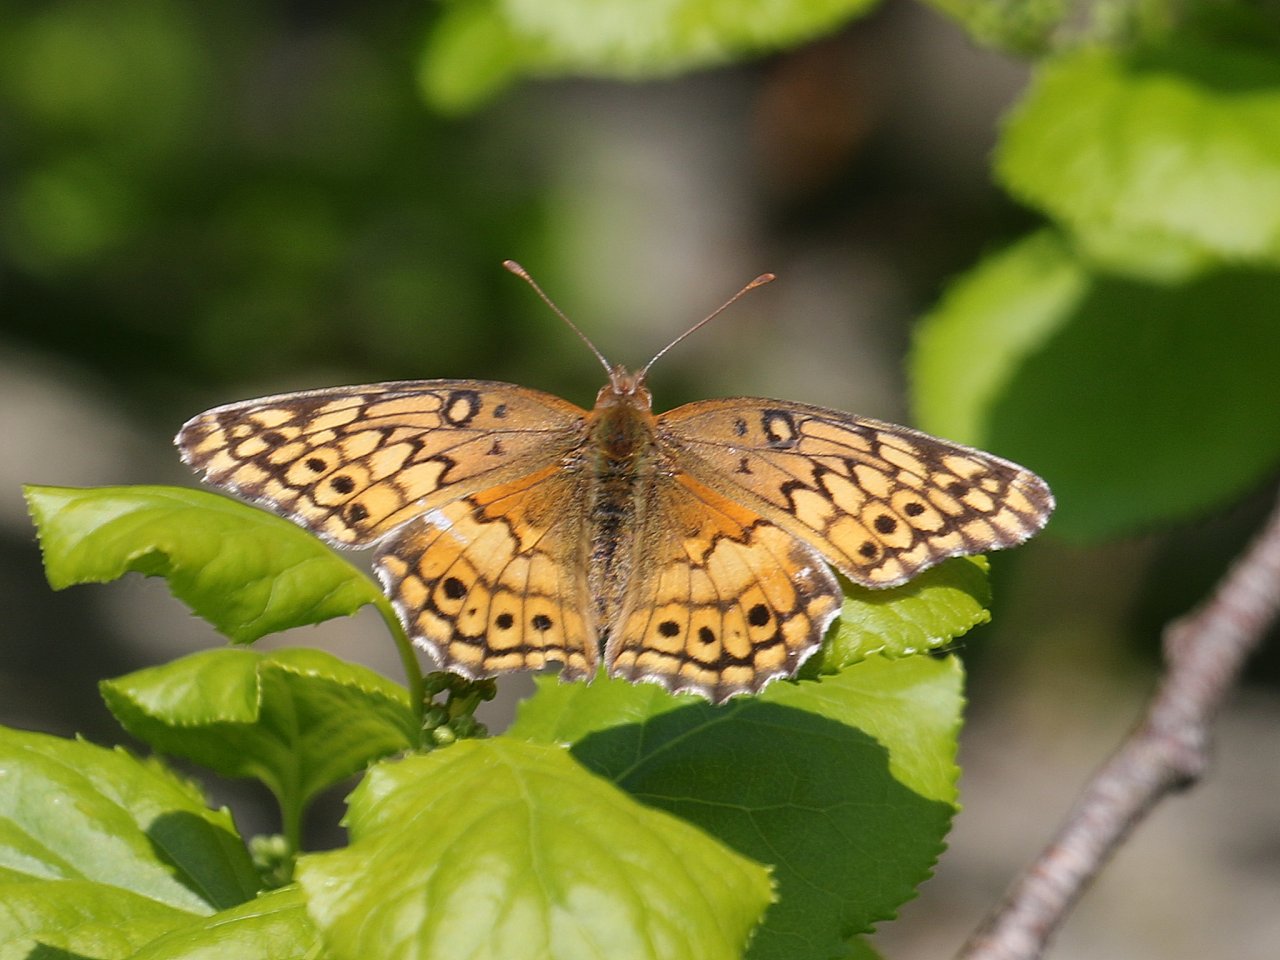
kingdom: Animalia
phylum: Arthropoda
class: Insecta
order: Lepidoptera
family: Nymphalidae
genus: Euptoieta
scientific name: Euptoieta claudia
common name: Variegated Fritillary
